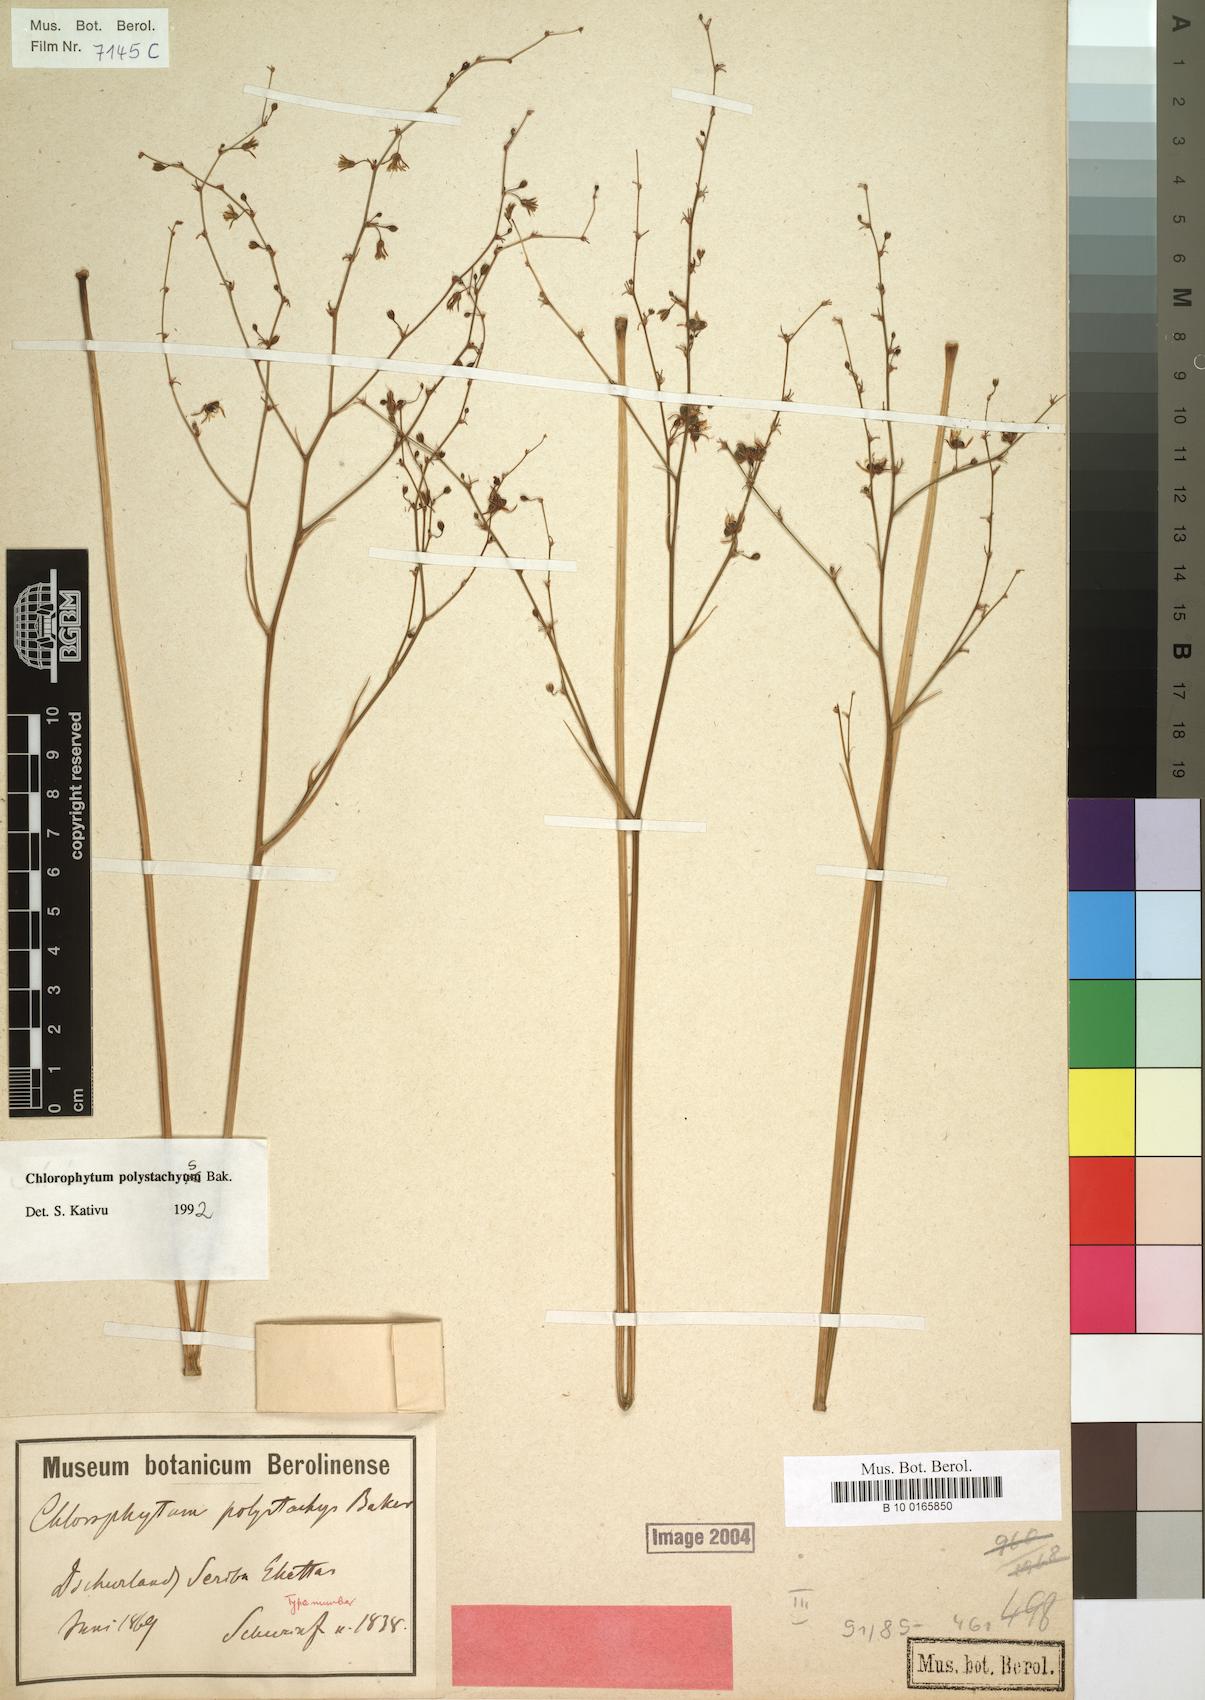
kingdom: Plantae
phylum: Tracheophyta
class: Liliopsida
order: Asparagales
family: Asparagaceae
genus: Chlorophytum
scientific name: Chlorophytum polystachys
